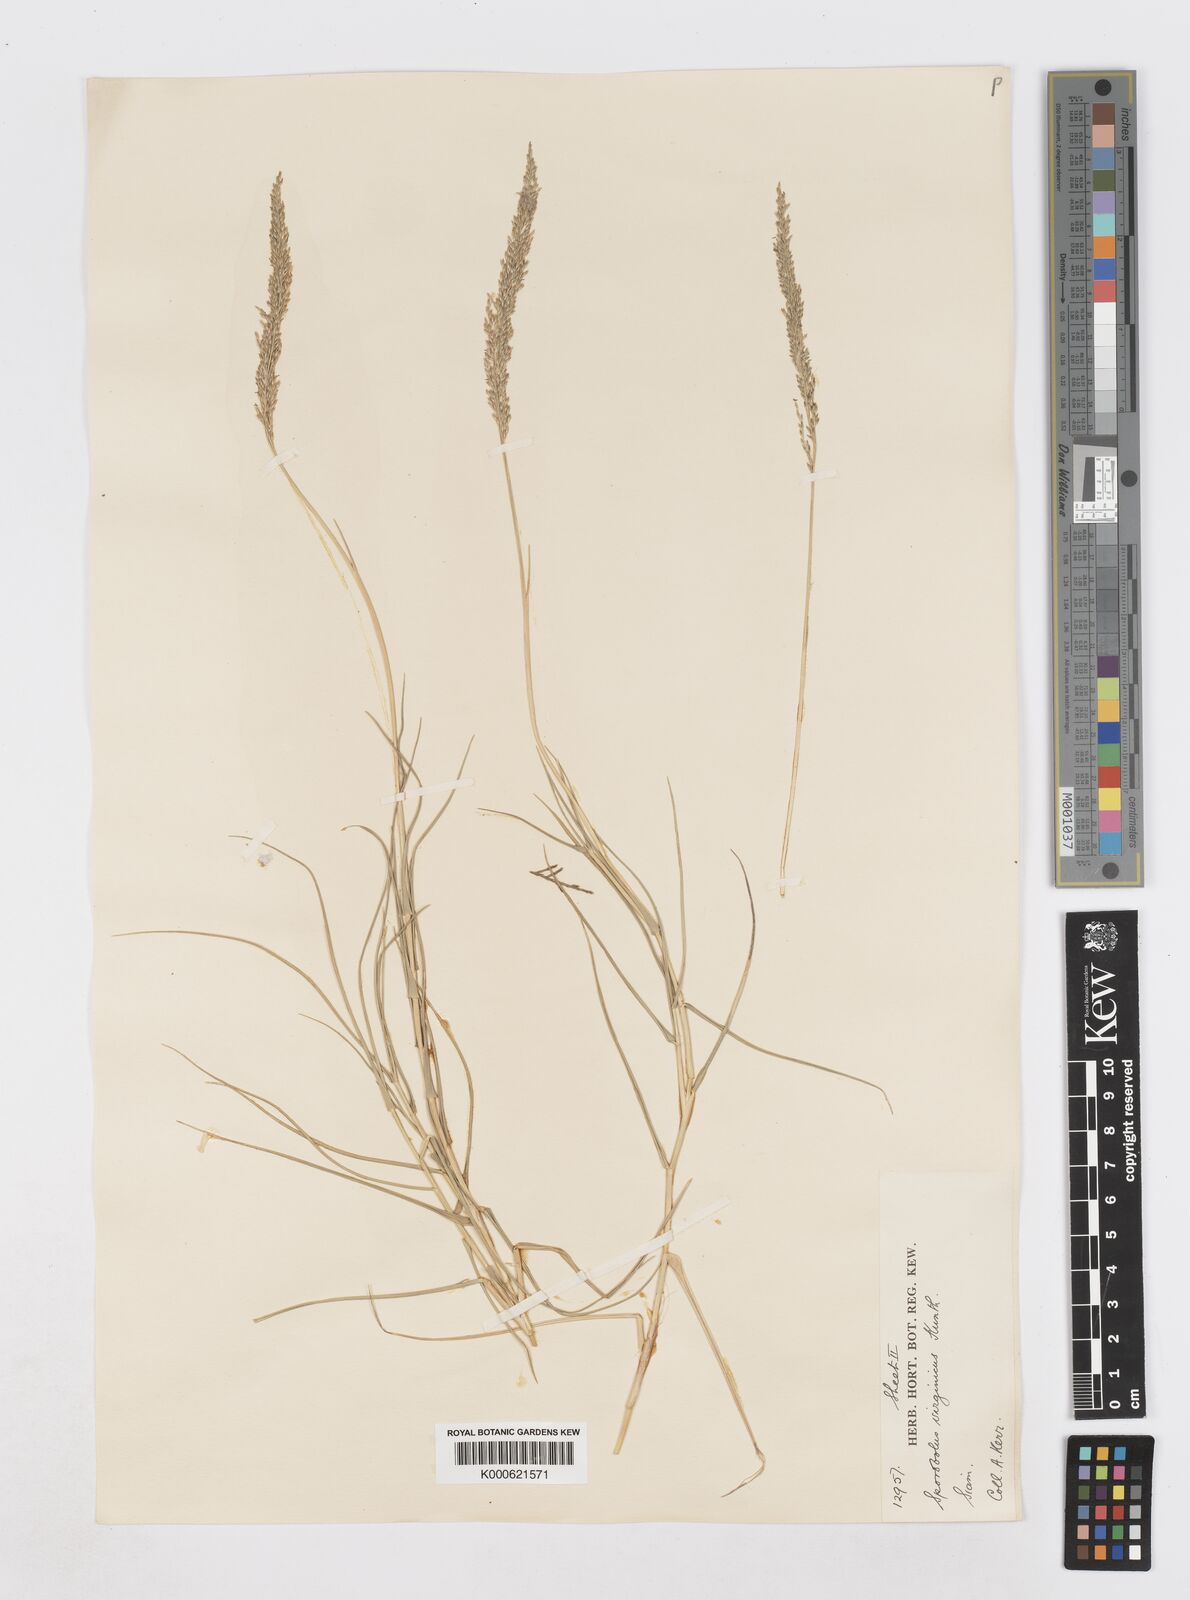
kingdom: Plantae
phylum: Tracheophyta
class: Liliopsida
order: Poales
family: Poaceae
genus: Sporobolus
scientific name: Sporobolus virginicus
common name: Beach dropseed
